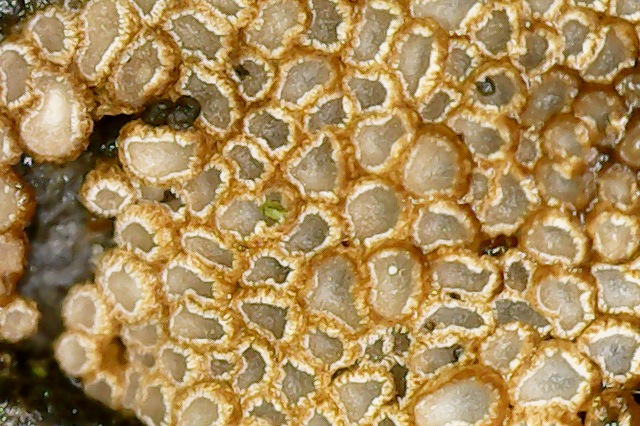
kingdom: Fungi
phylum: Basidiomycota
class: Agaricomycetes
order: Agaricales
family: Niaceae
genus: Merismodes
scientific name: Merismodes anomala
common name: almindelig læderskål
